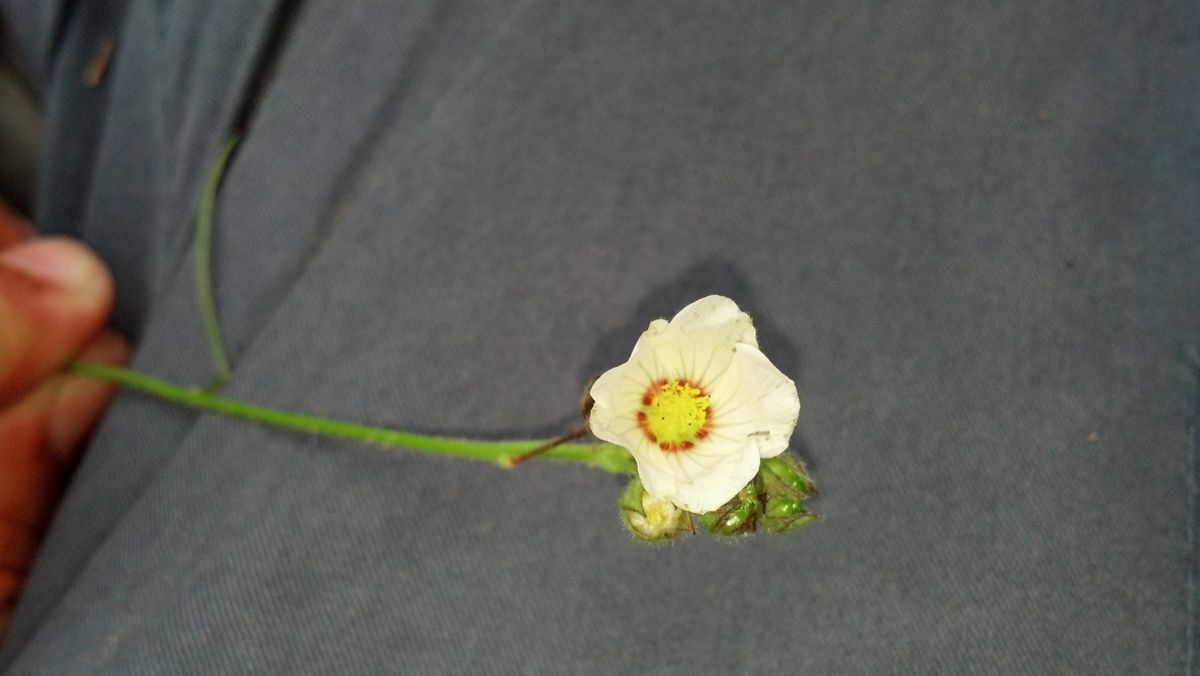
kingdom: Plantae
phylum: Tracheophyta
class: Magnoliopsida
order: Malvales
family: Malvaceae
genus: Sida
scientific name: Sida linifolia
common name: Flaxleaf fanpetals
